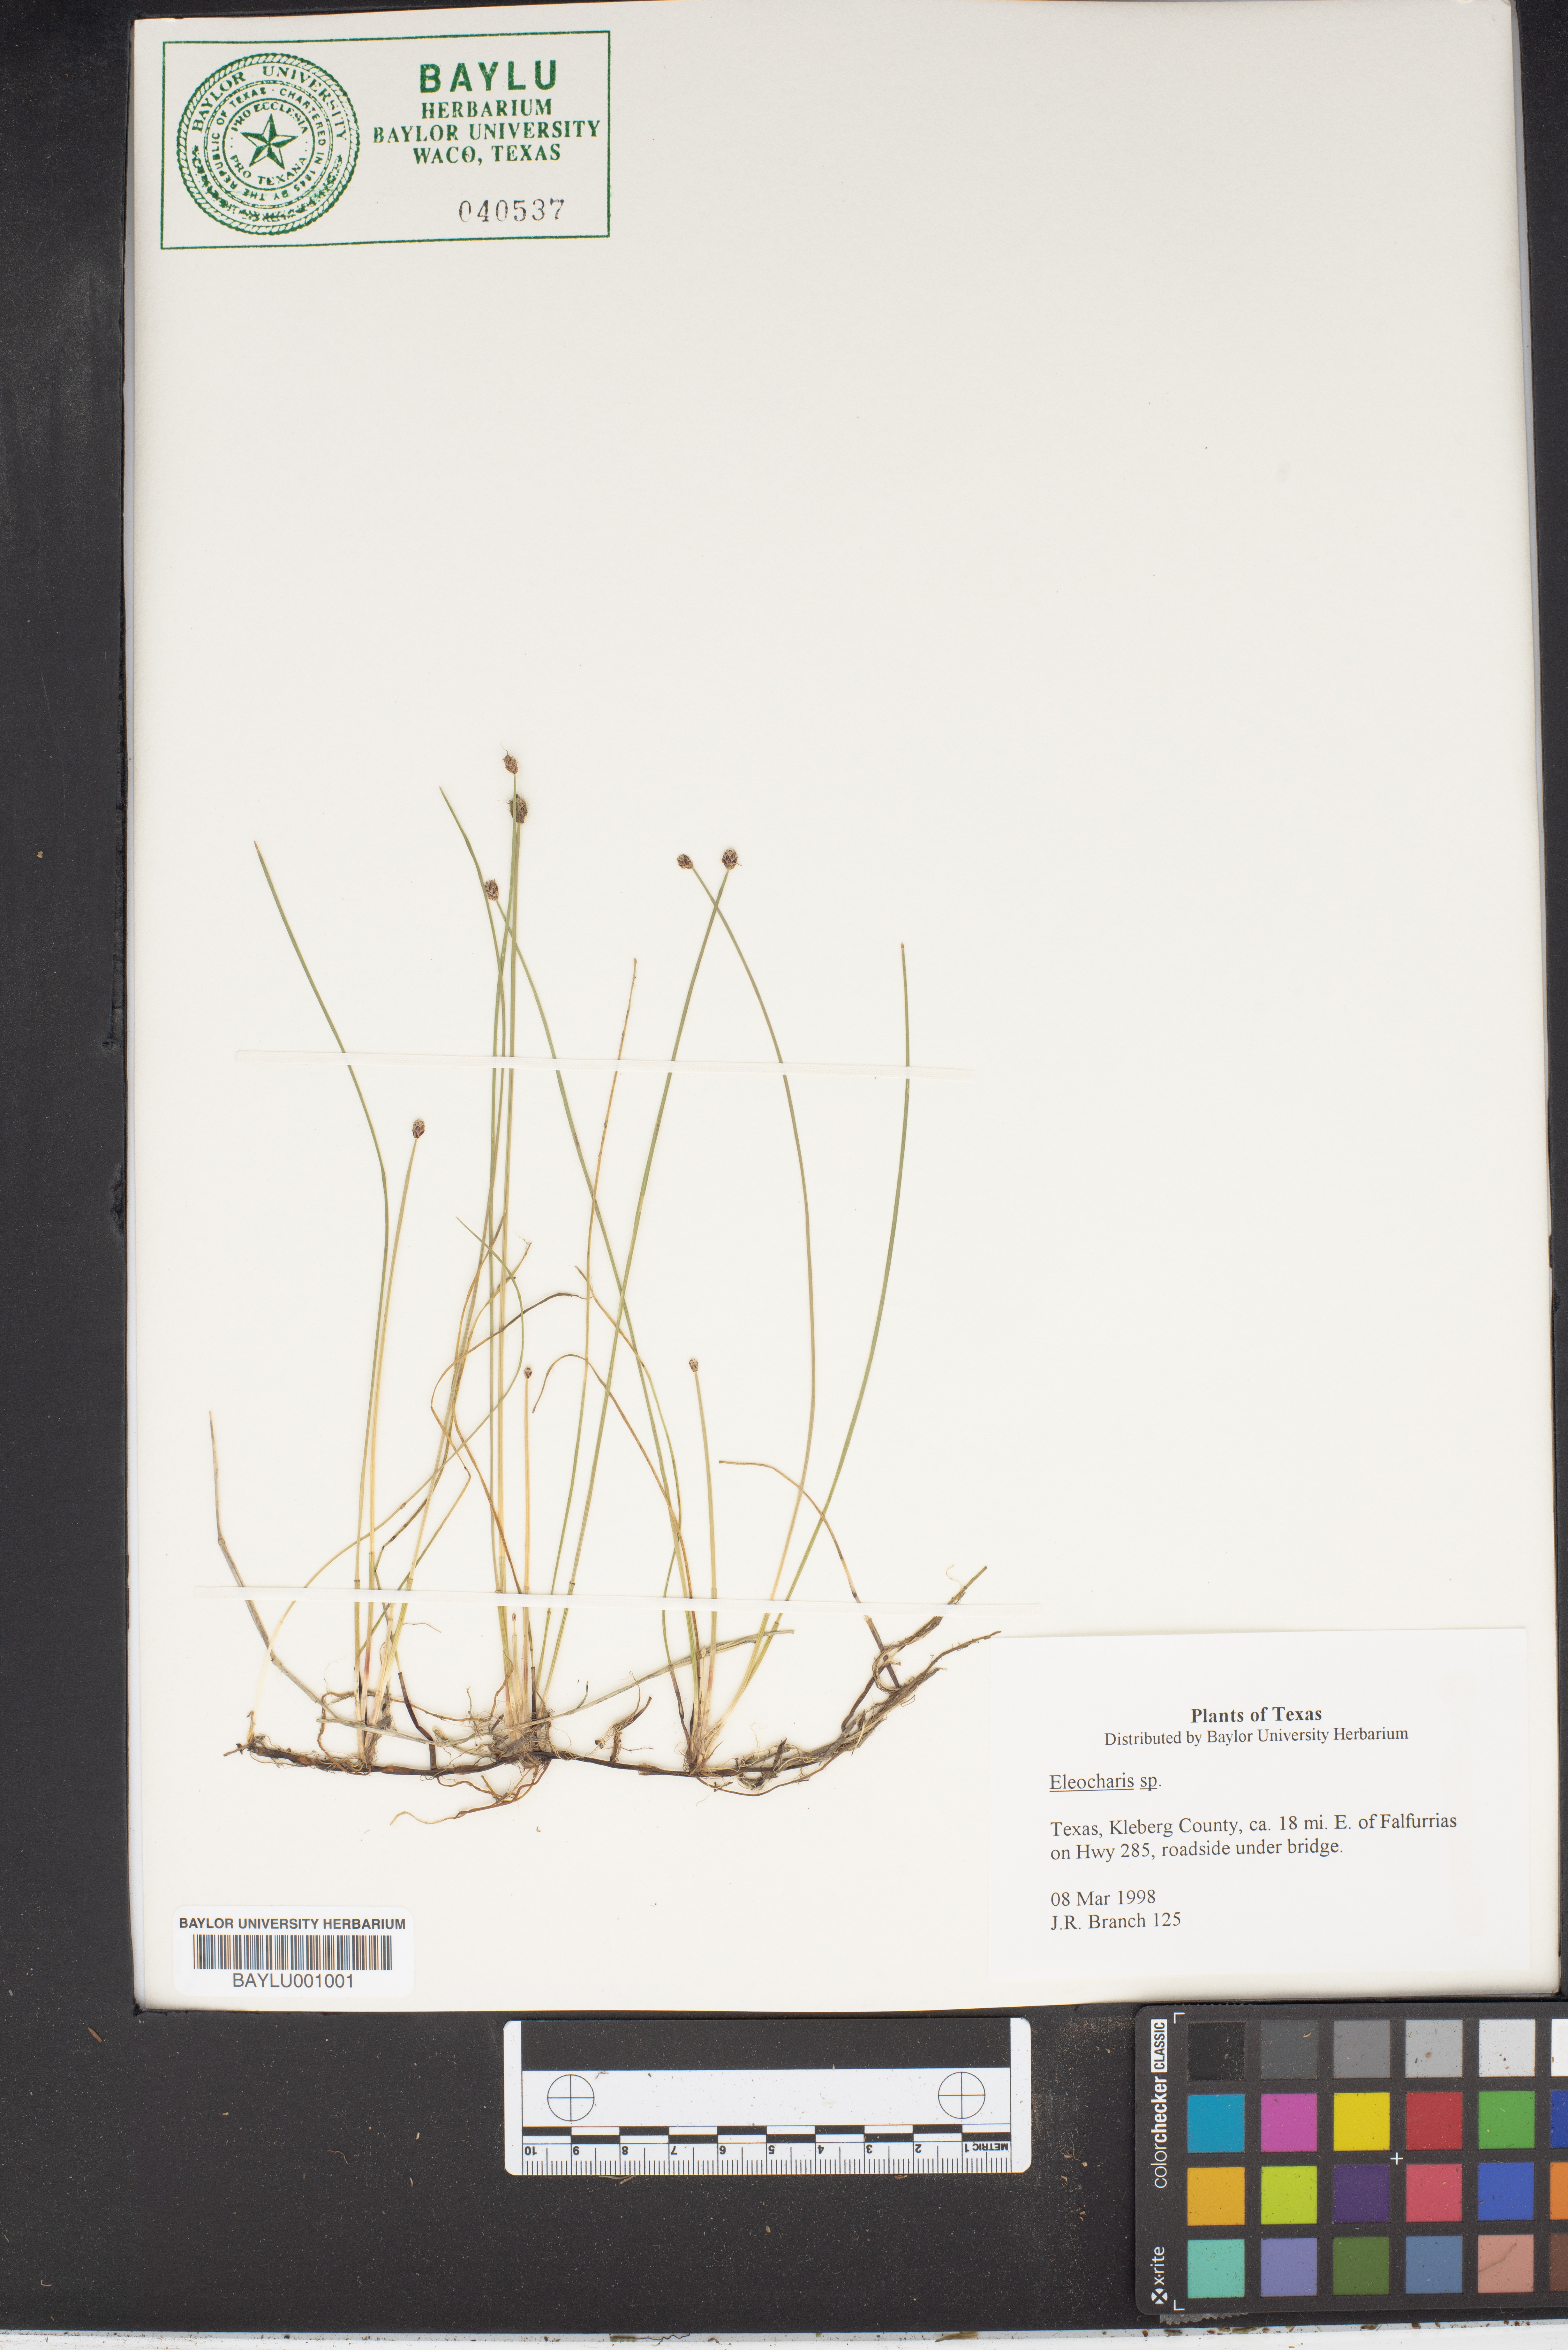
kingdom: Plantae
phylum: Tracheophyta
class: Liliopsida
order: Poales
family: Cyperaceae
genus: Eleocharis
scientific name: Eleocharis
